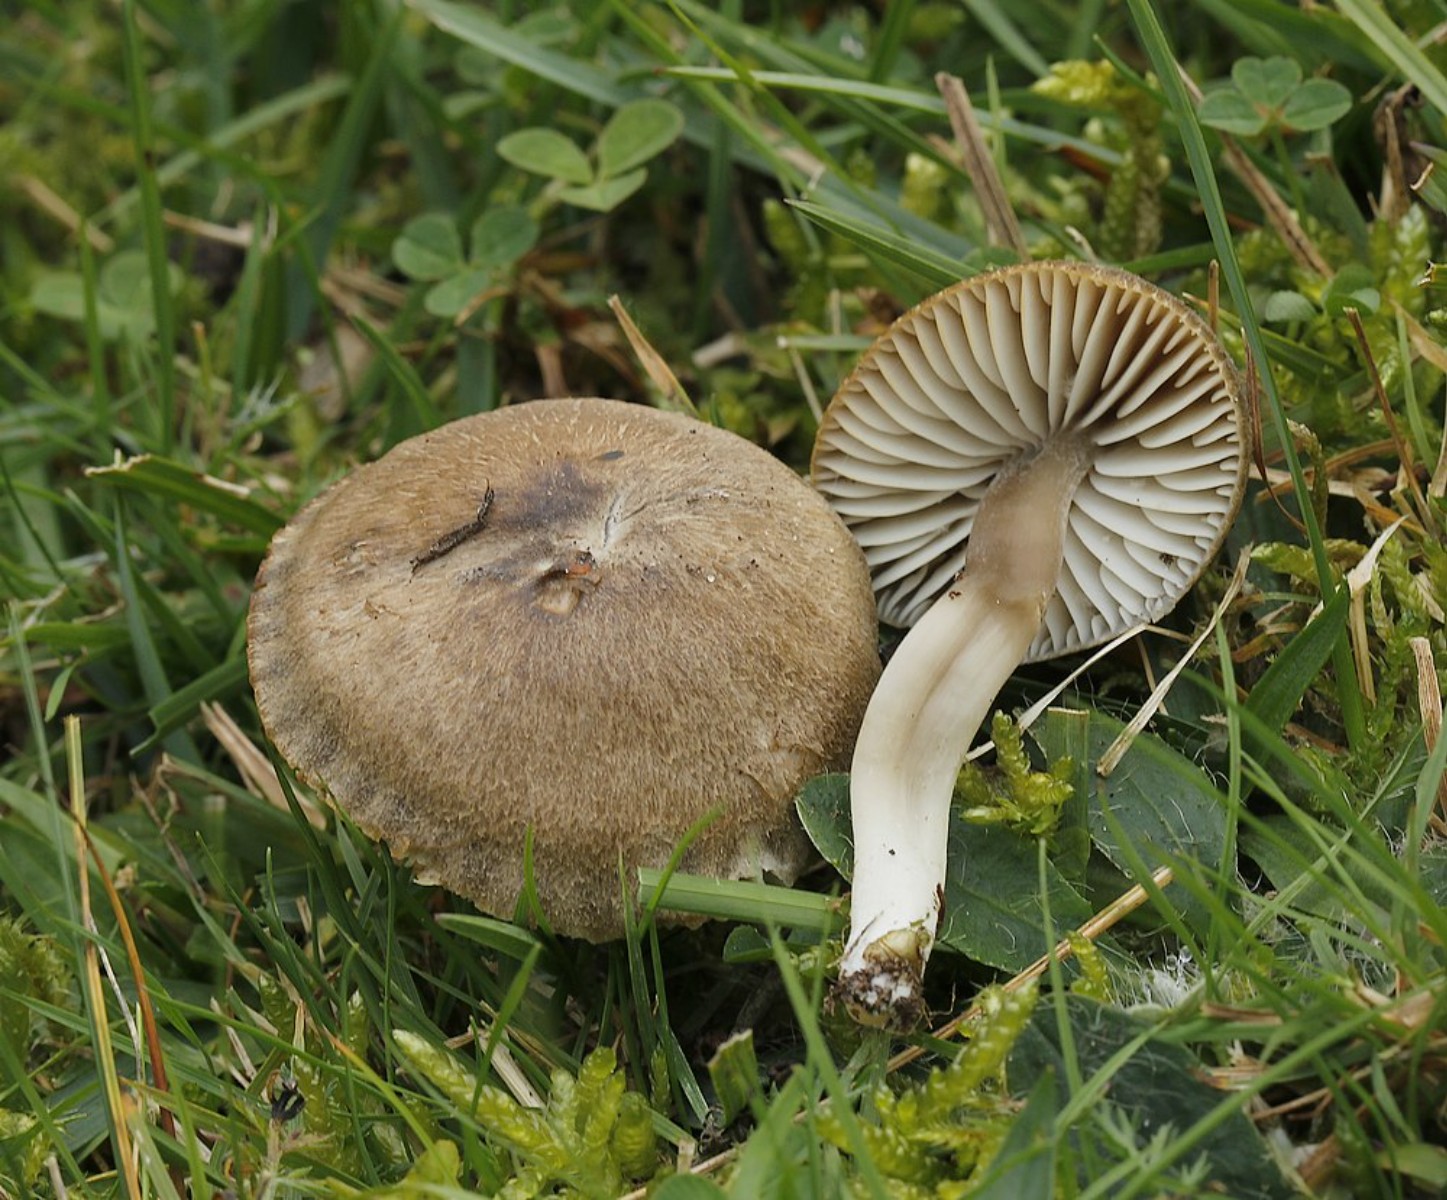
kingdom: Fungi
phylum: Basidiomycota
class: Agaricomycetes
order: Agaricales
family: Hygrophoraceae
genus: Neohygrocybe
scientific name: Neohygrocybe nitrata
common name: stinkende vokshat
